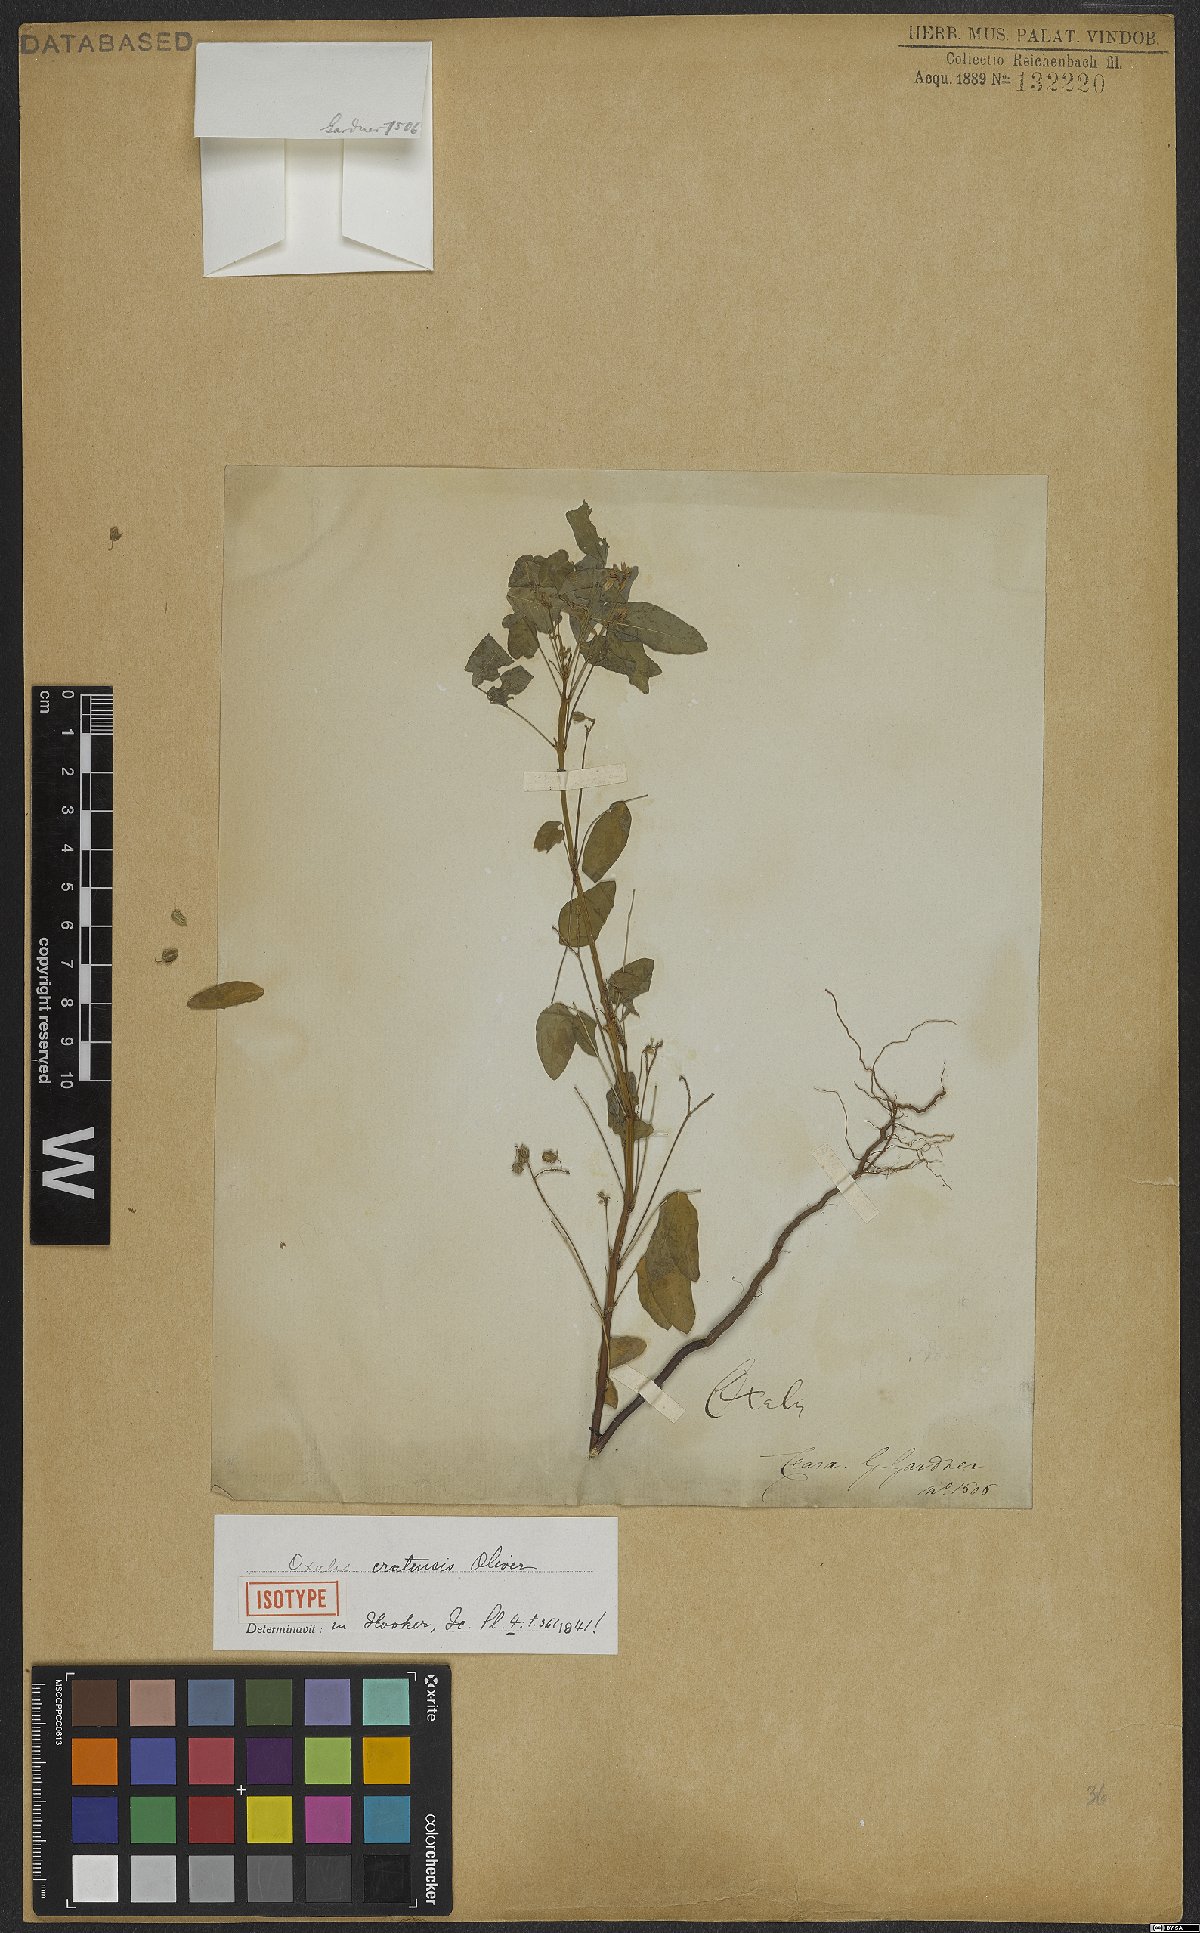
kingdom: Plantae
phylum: Tracheophyta
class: Magnoliopsida
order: Oxalidales
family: Oxalidaceae
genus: Oxalis
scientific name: Oxalis cratensis
